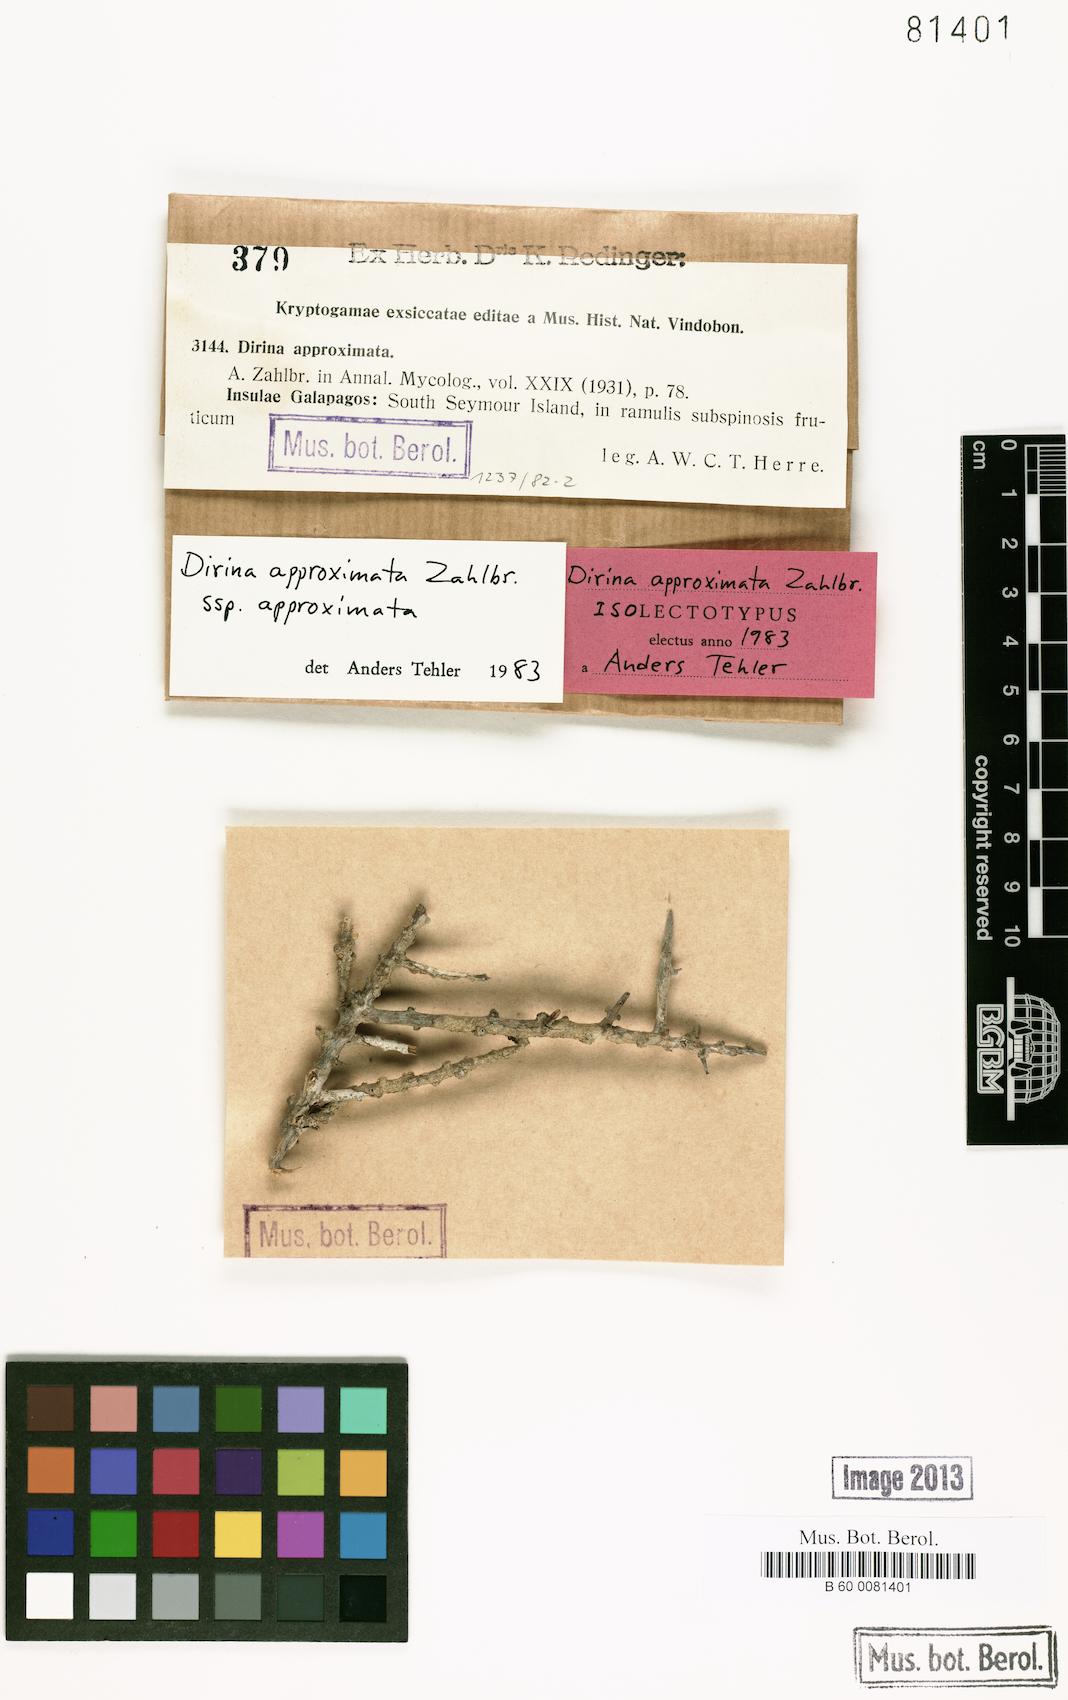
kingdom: Fungi
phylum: Ascomycota
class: Arthoniomycetes
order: Arthoniales
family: Roccellaceae
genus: Dirina
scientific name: Dirina approximata
